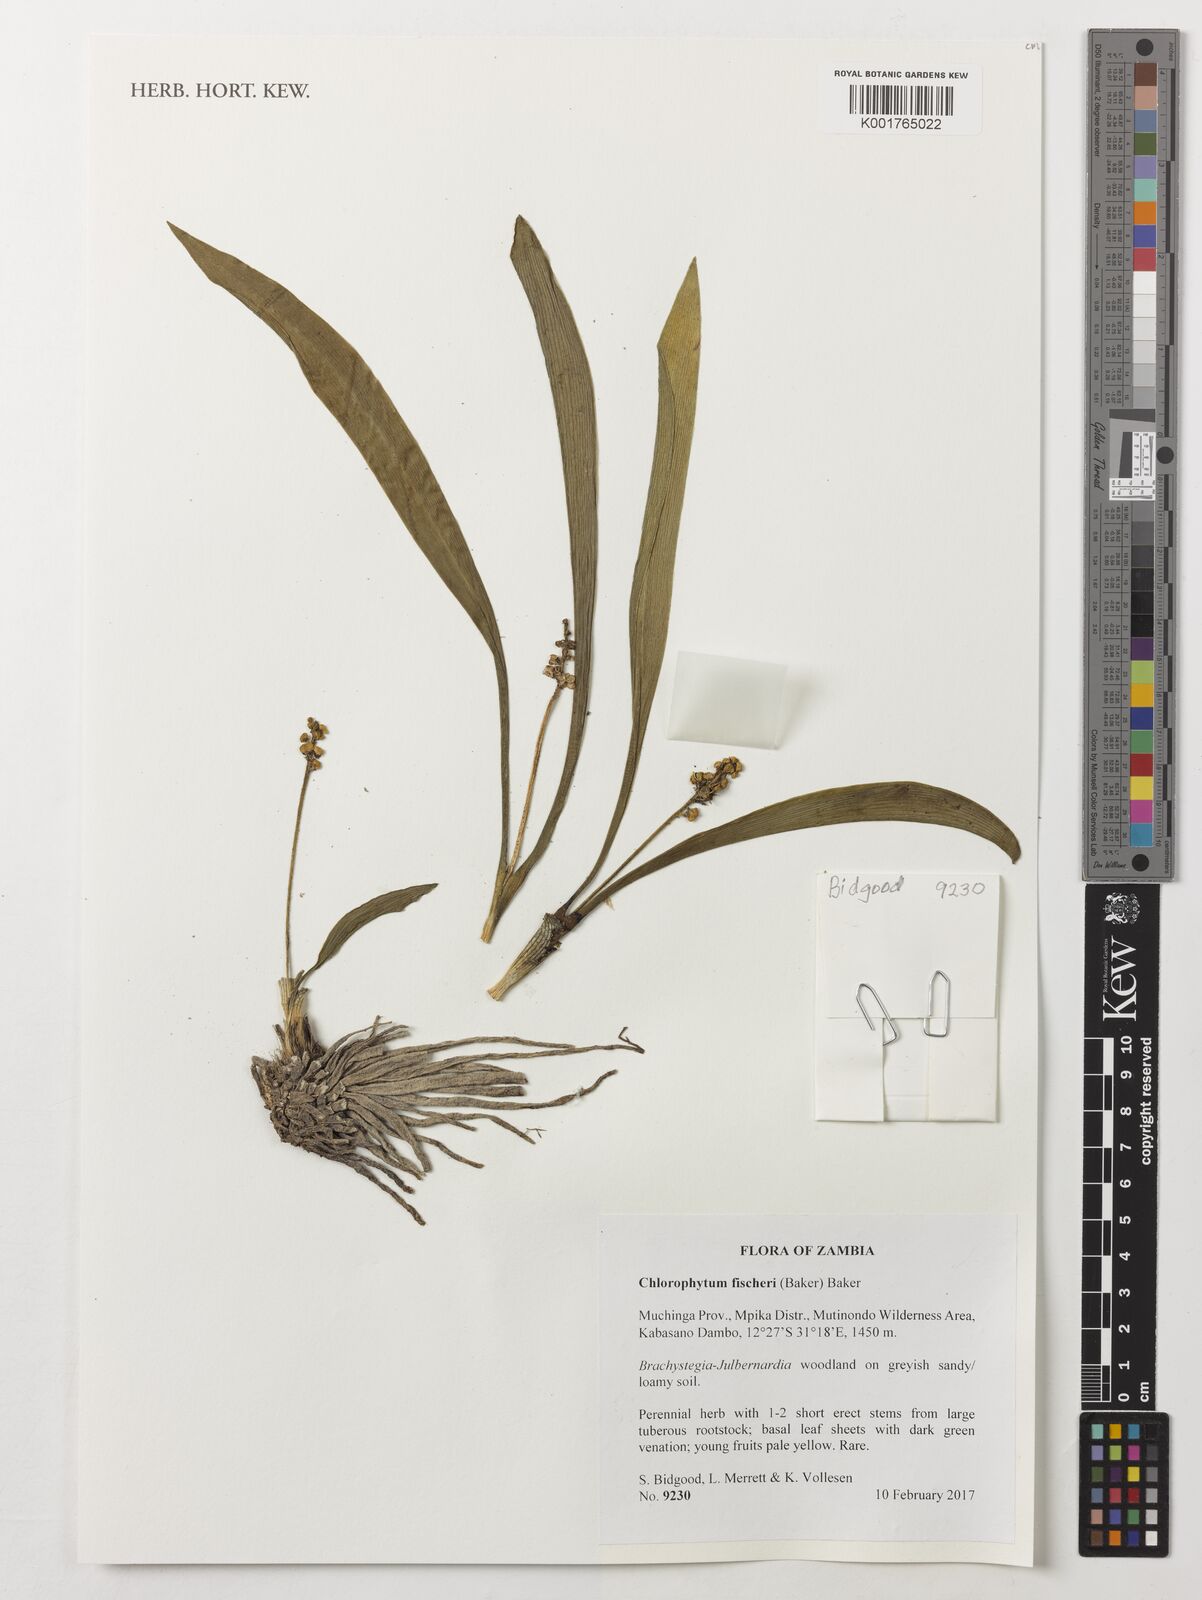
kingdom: Plantae
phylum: Tracheophyta
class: Liliopsida
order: Asparagales
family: Asparagaceae
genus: Chlorophytum
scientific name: Chlorophytum fischeri
